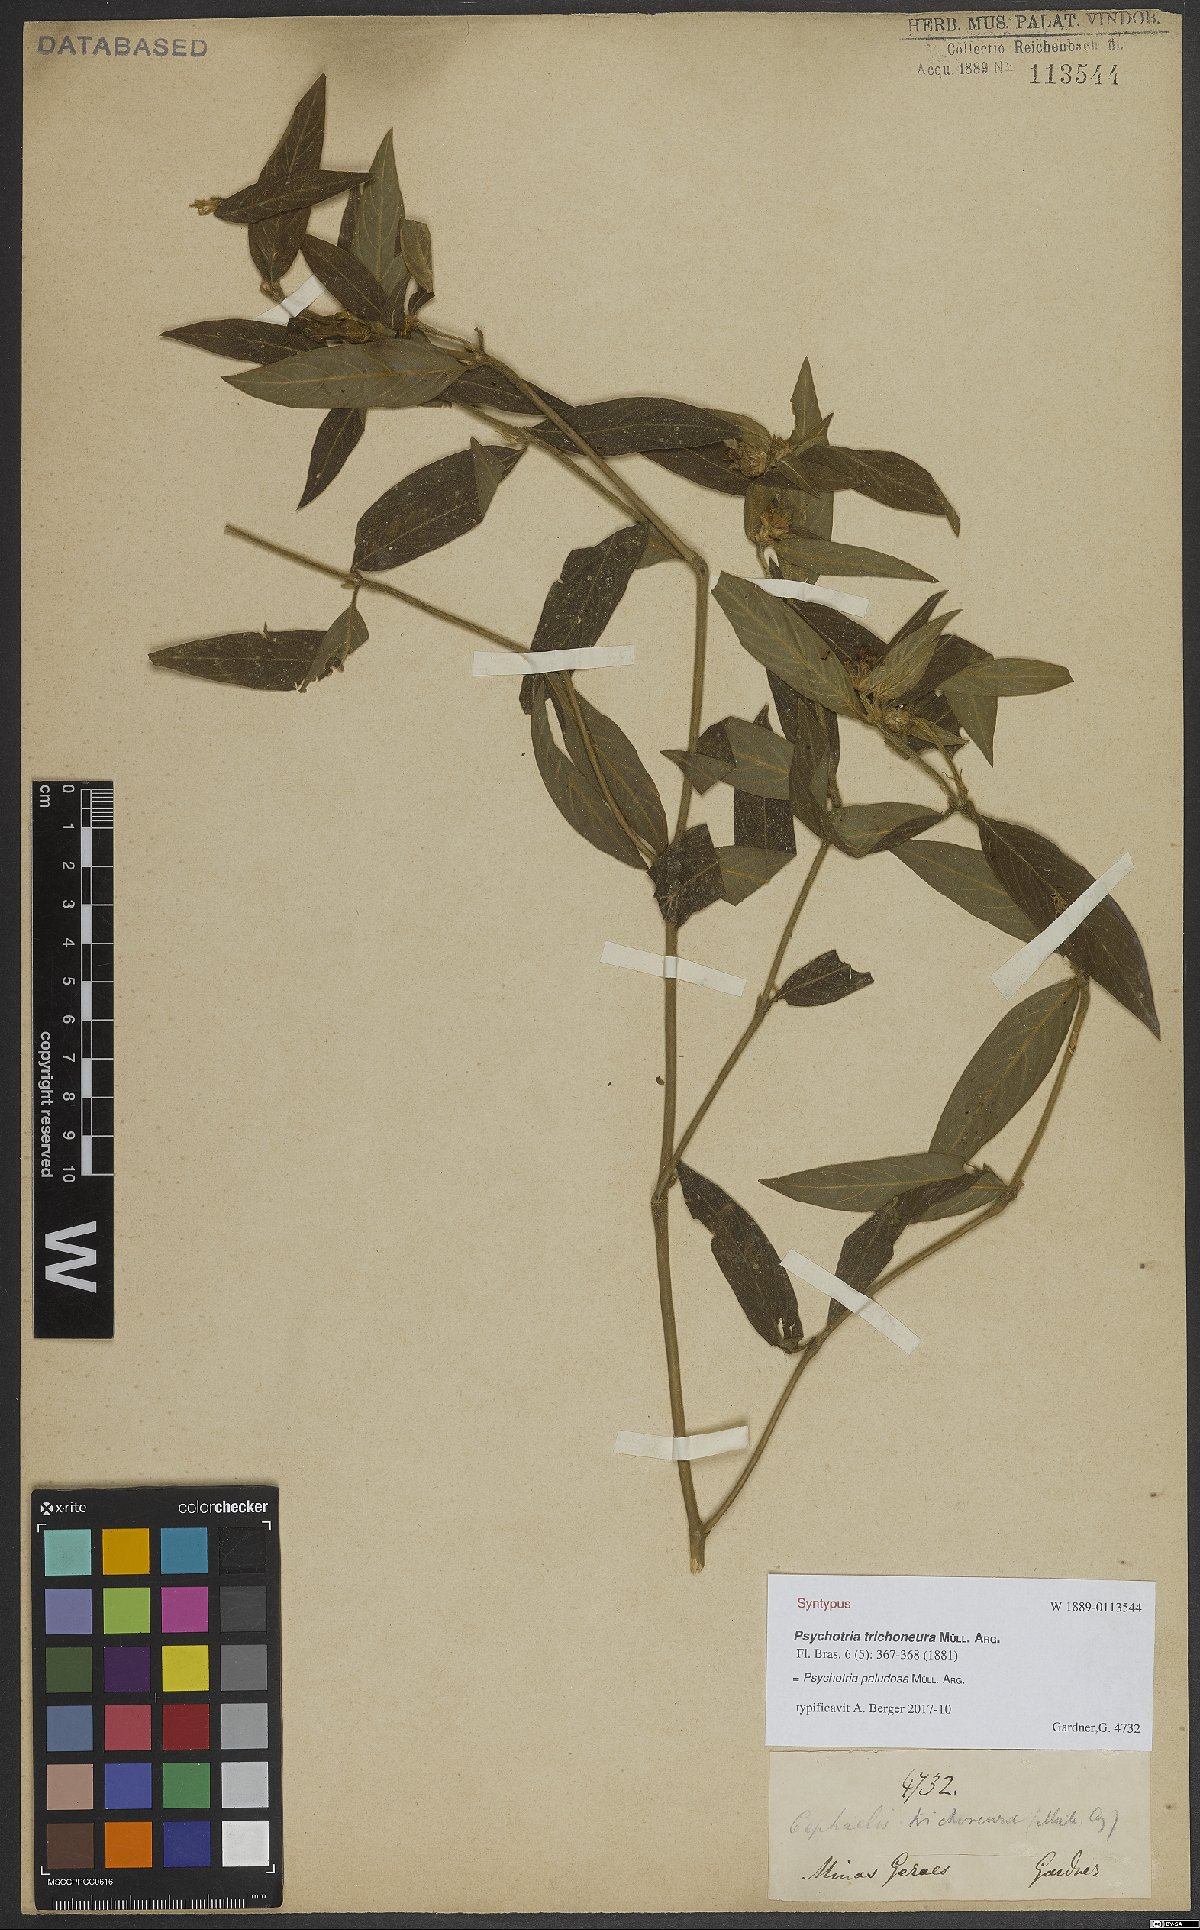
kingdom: Plantae
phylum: Tracheophyta
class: Magnoliopsida
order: Gentianales
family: Rubiaceae
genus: Psychotria
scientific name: Psychotria paludosa
